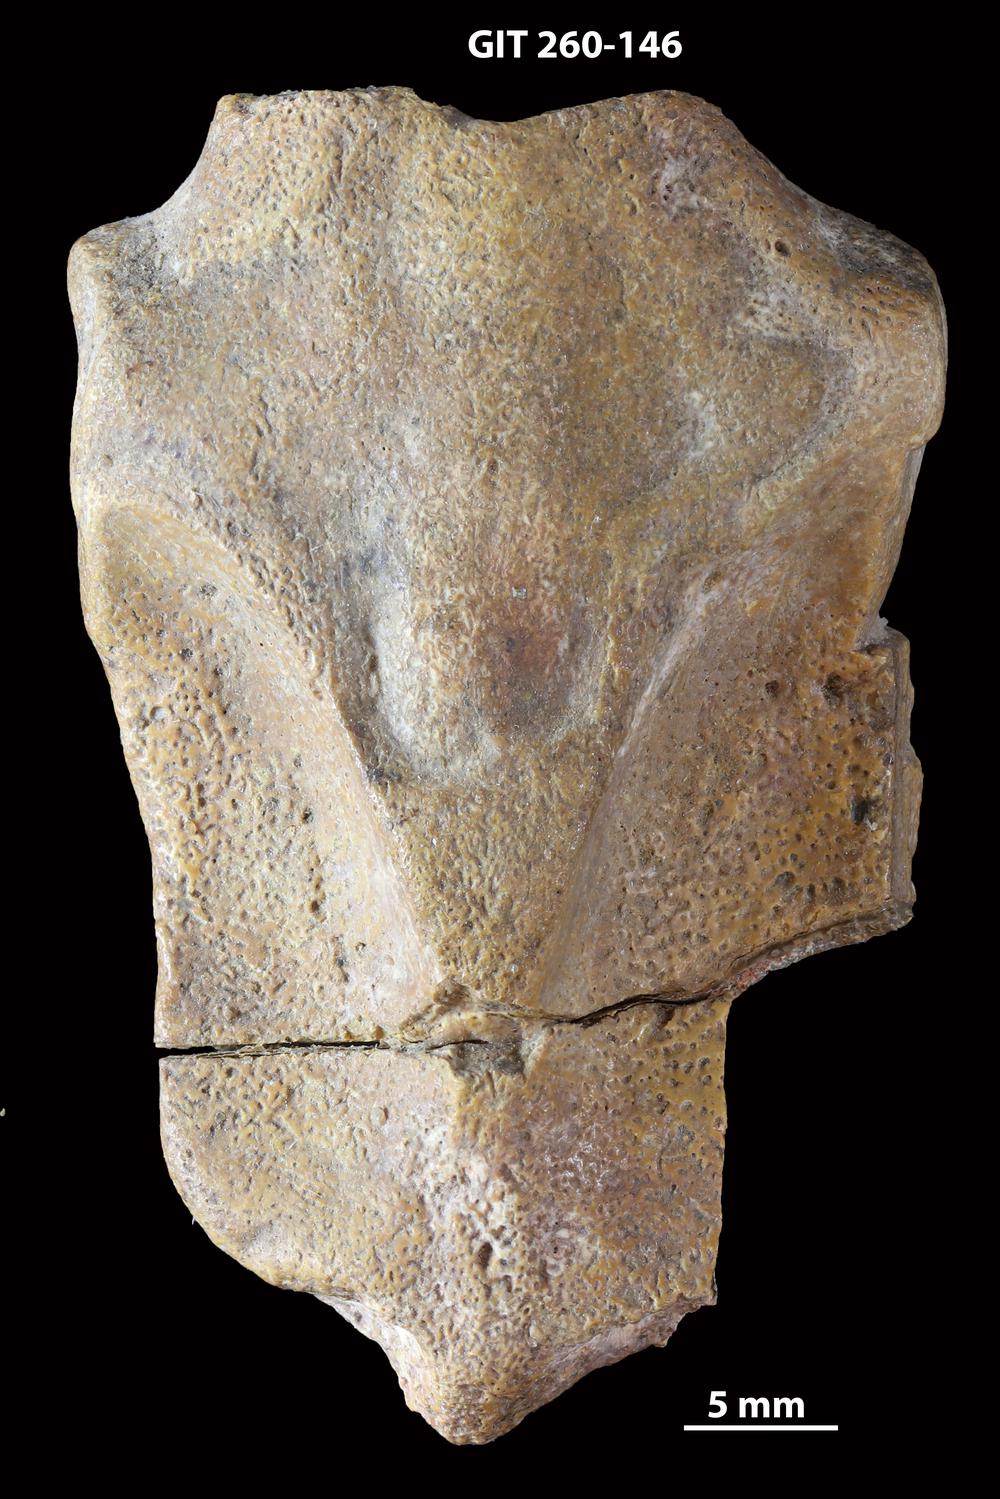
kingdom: Animalia
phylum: Chordata
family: Homostiidae
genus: Homostius
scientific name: Homostius
